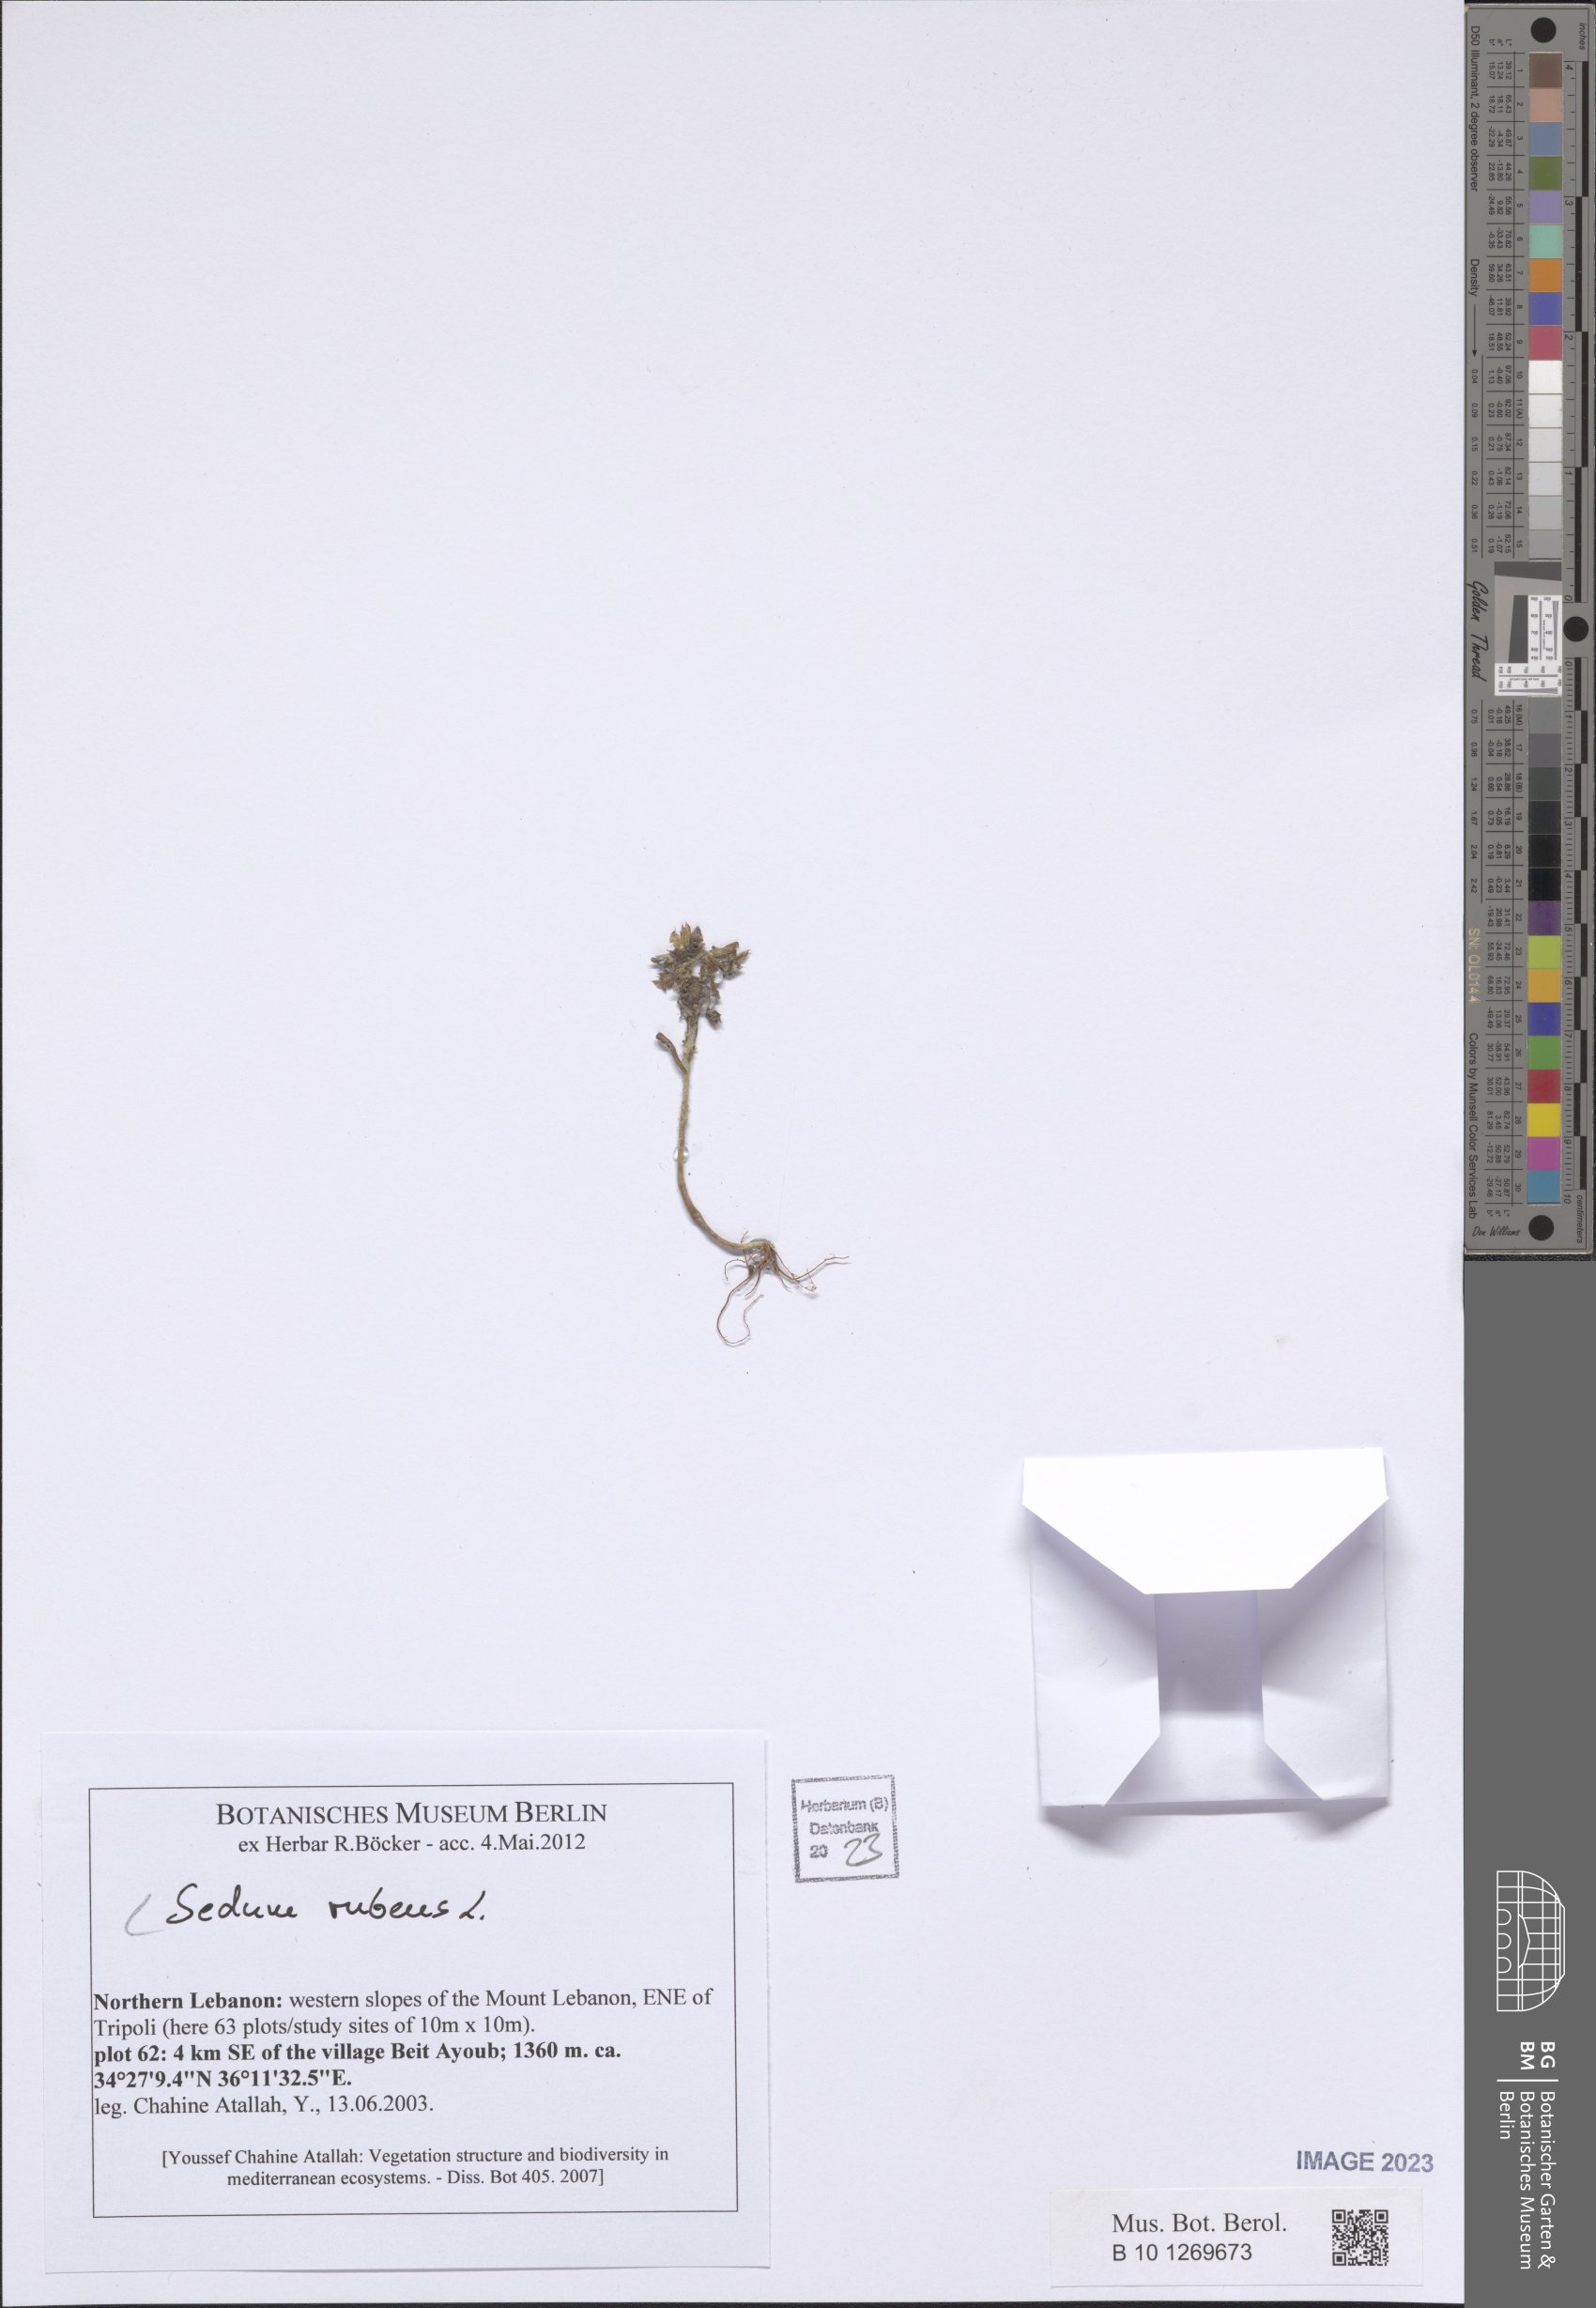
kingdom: Plantae
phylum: Tracheophyta
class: Magnoliopsida
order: Saxifragales
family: Crassulaceae
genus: Sedum
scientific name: Sedum rubens
